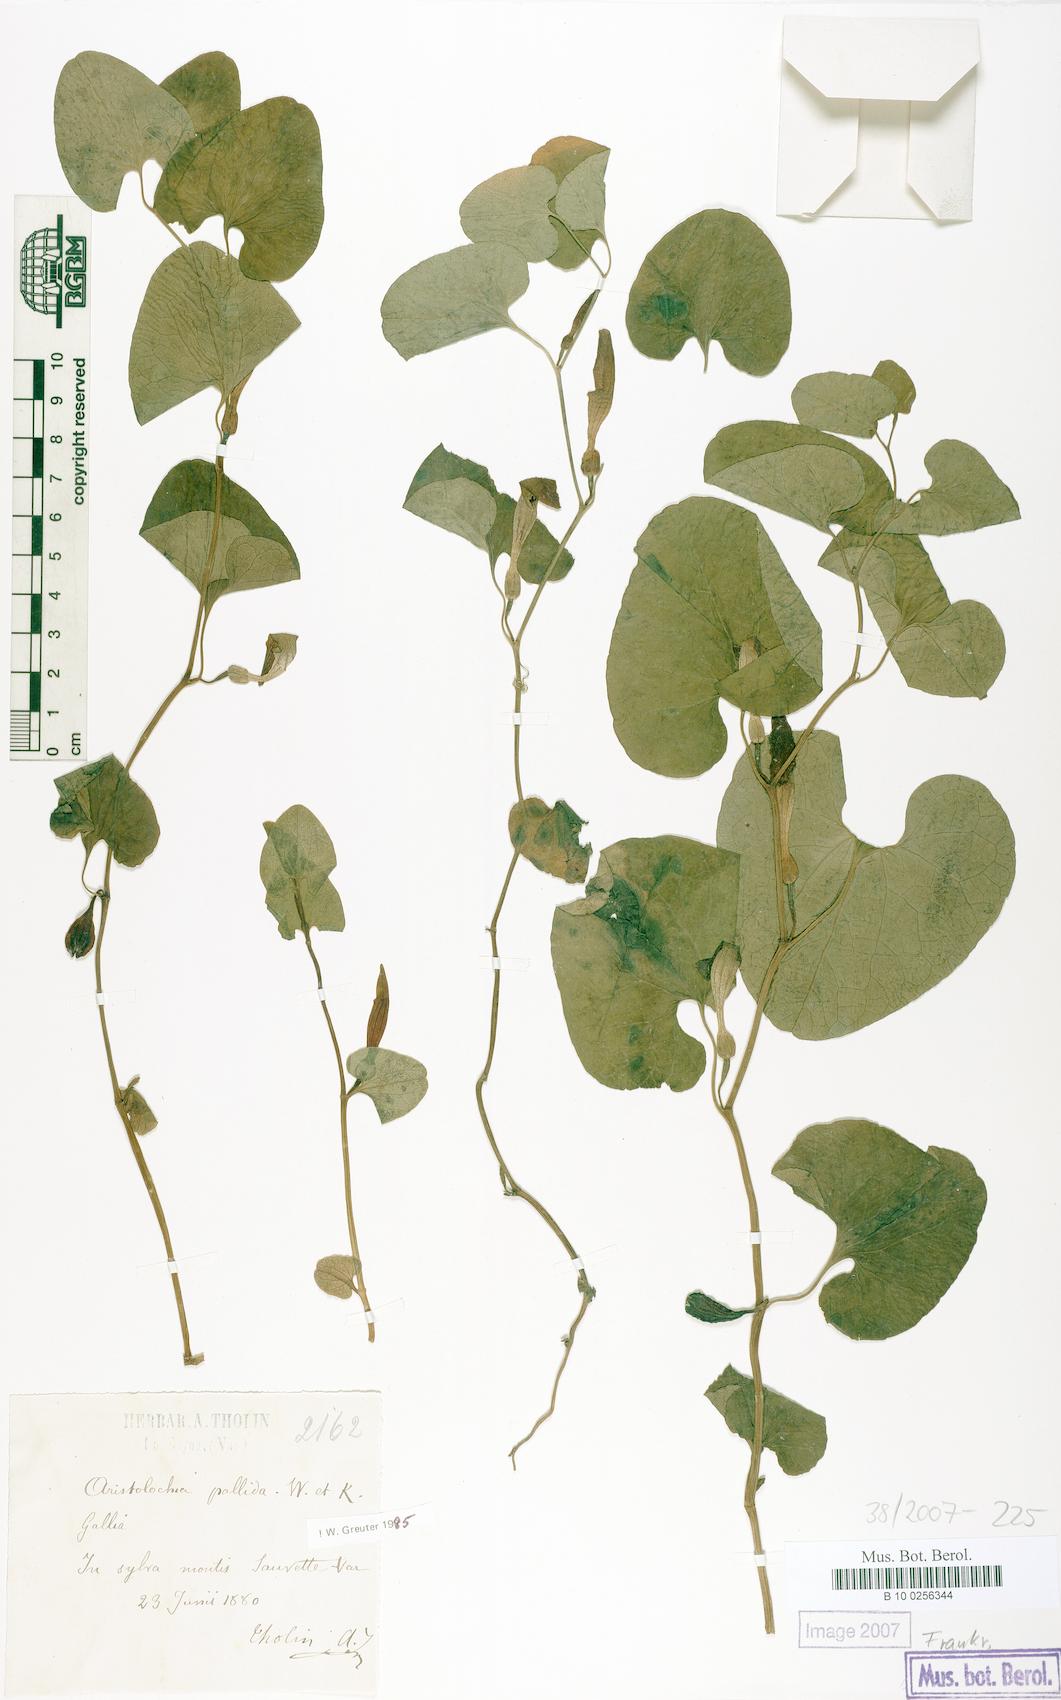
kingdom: Plantae
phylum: Tracheophyta
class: Magnoliopsida
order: Piperales
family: Aristolochiaceae
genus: Aristolochia
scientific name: Aristolochia pallida
